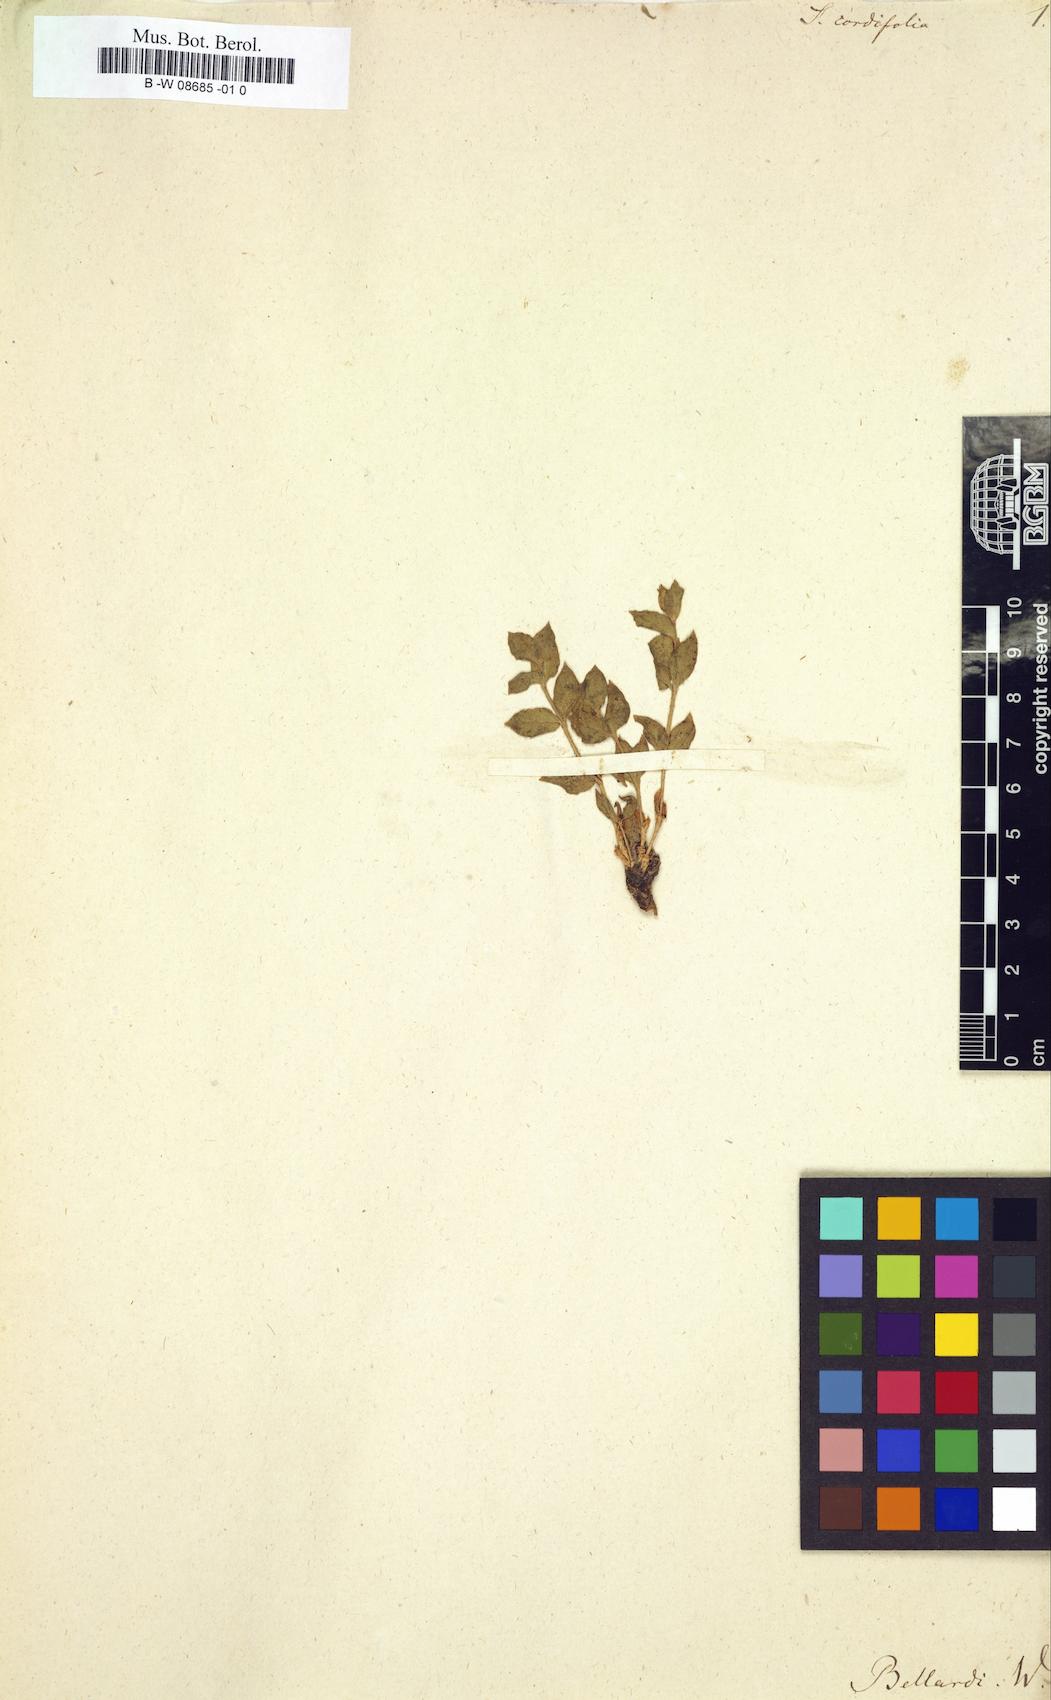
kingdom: Plantae
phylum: Tracheophyta
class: Magnoliopsida
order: Caryophyllales
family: Caryophyllaceae
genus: Silene
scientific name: Silene cordifolia
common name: Heart-leaved catchfly
